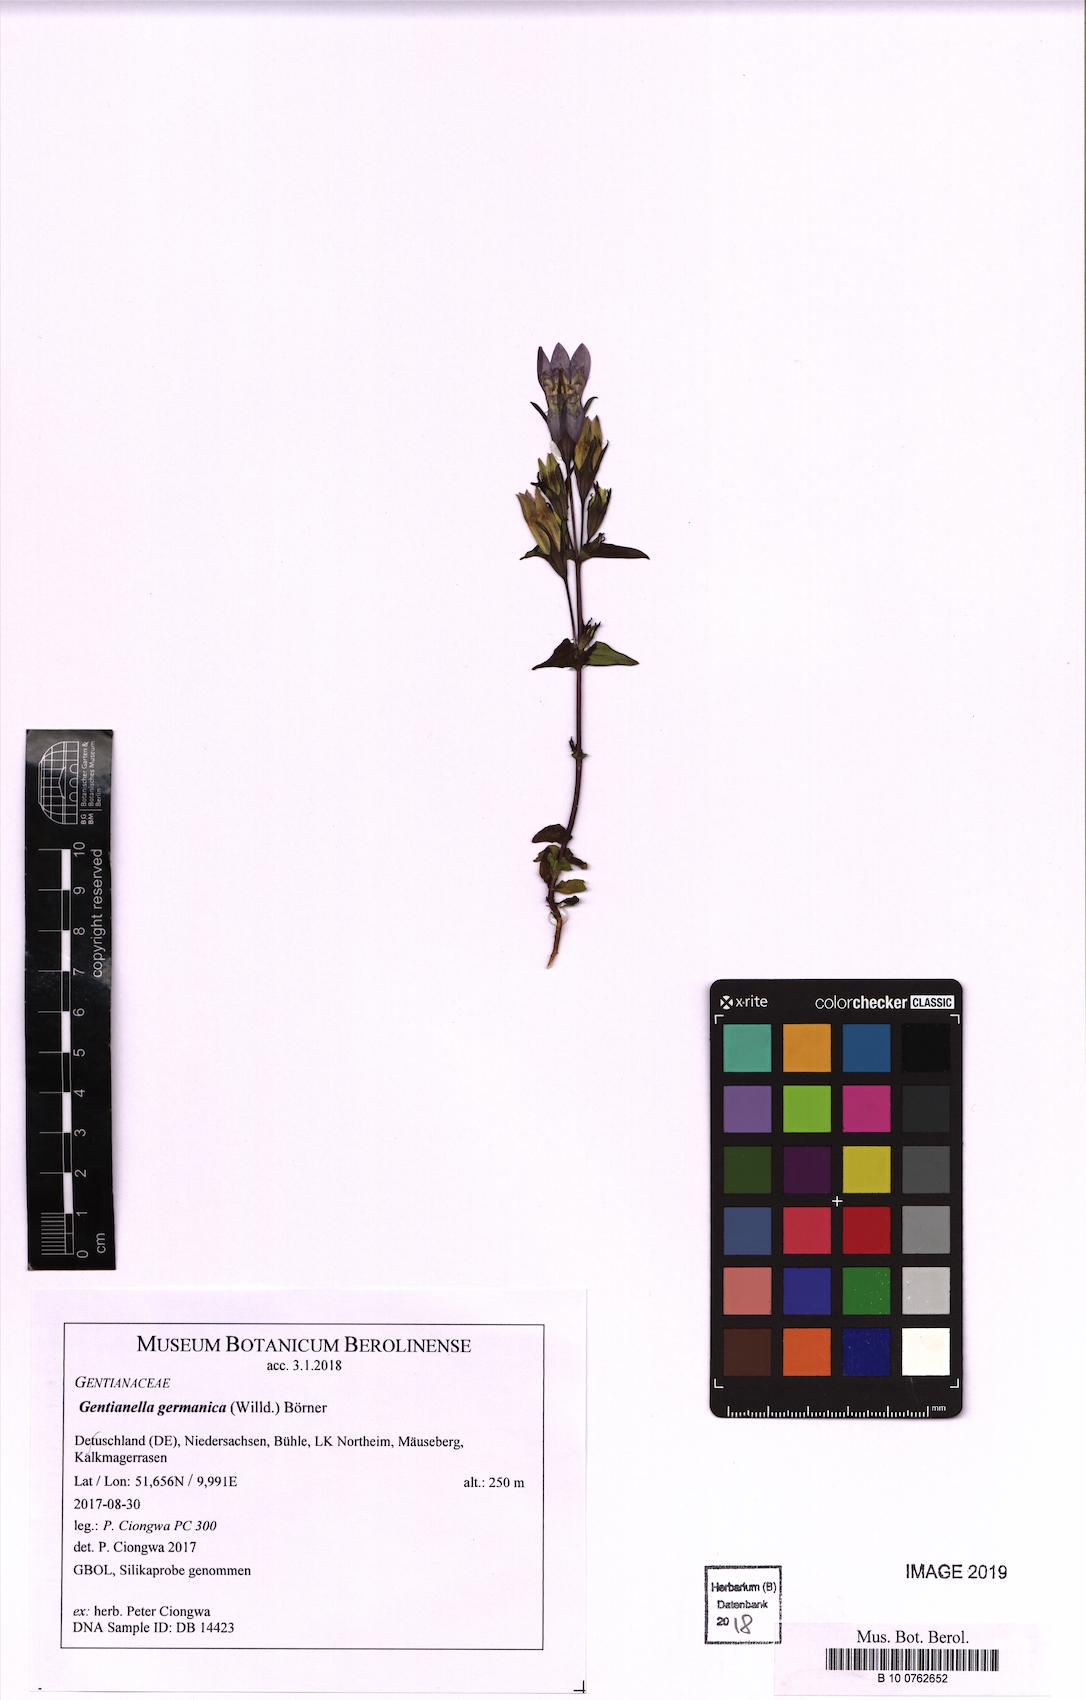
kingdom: Plantae
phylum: Tracheophyta
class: Magnoliopsida
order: Gentianales
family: Gentianaceae
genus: Gentianella
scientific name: Gentianella germanica
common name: Chiltern-gentian
